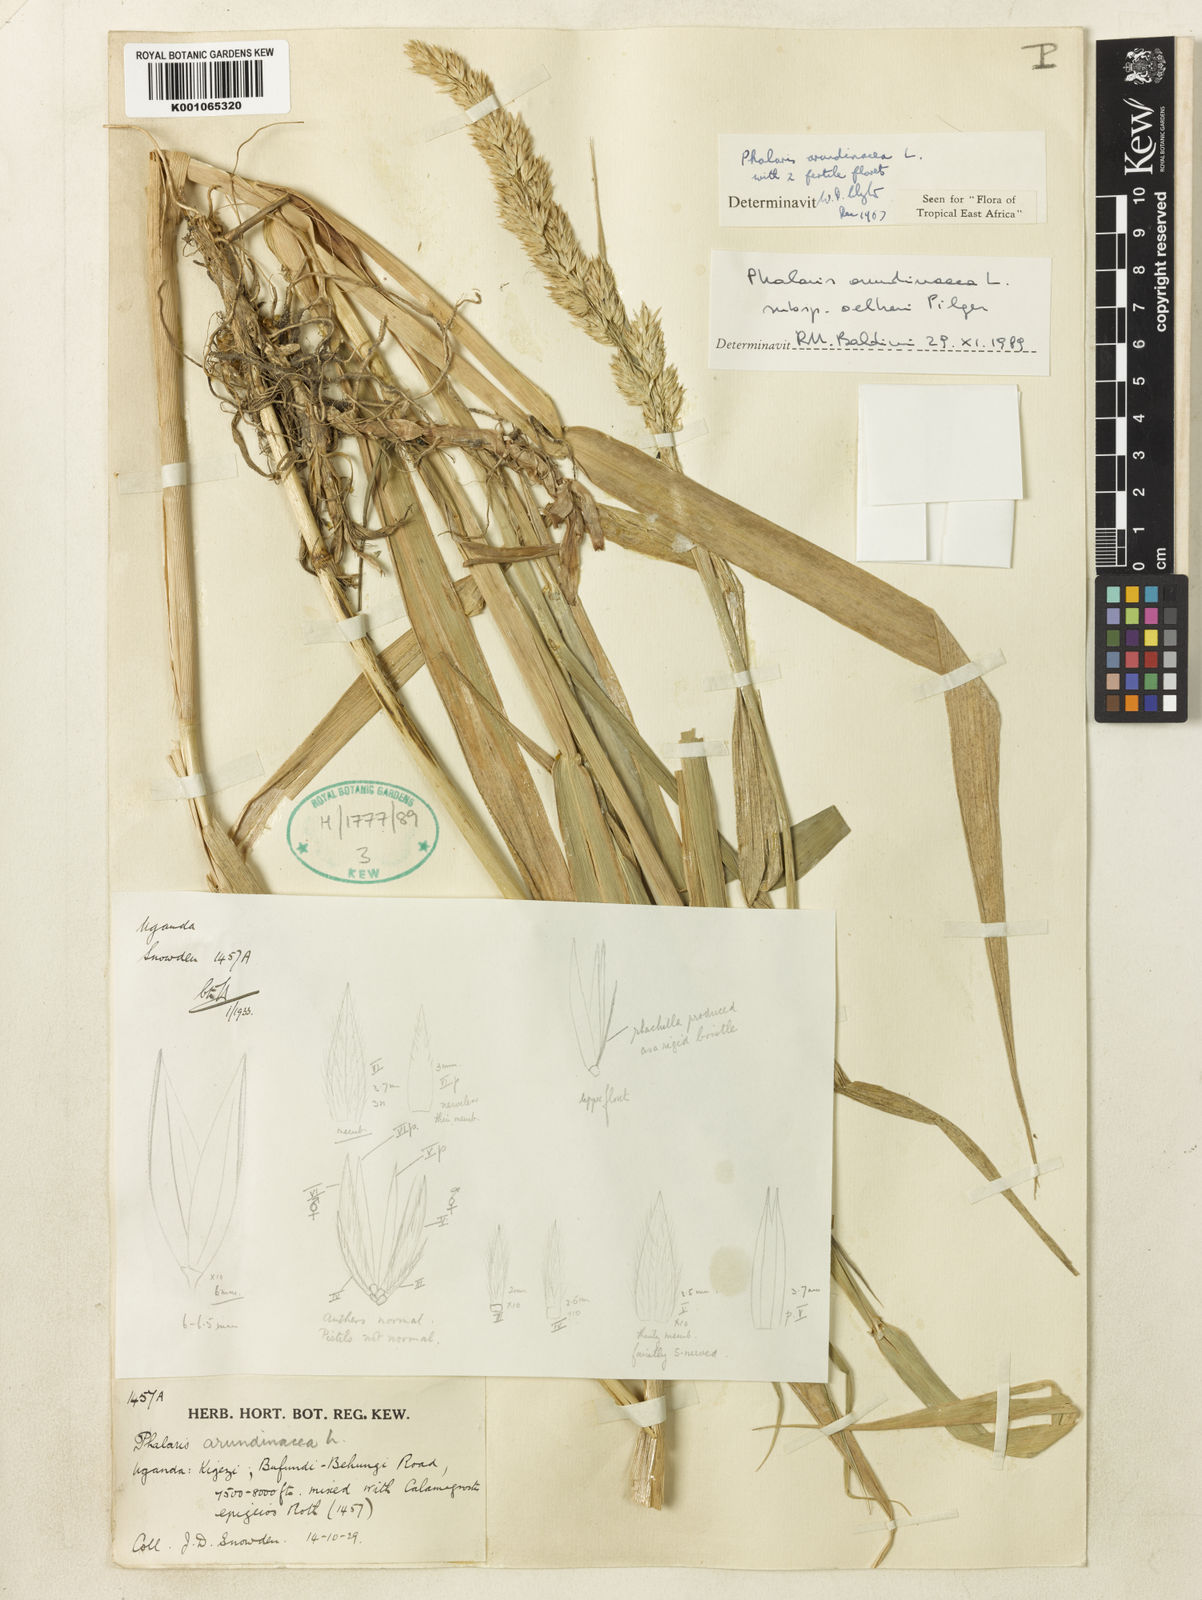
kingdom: Plantae
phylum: Tracheophyta
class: Liliopsida
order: Poales
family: Poaceae
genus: Phalaris
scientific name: Phalaris arundinacea
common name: Reed canary-grass
